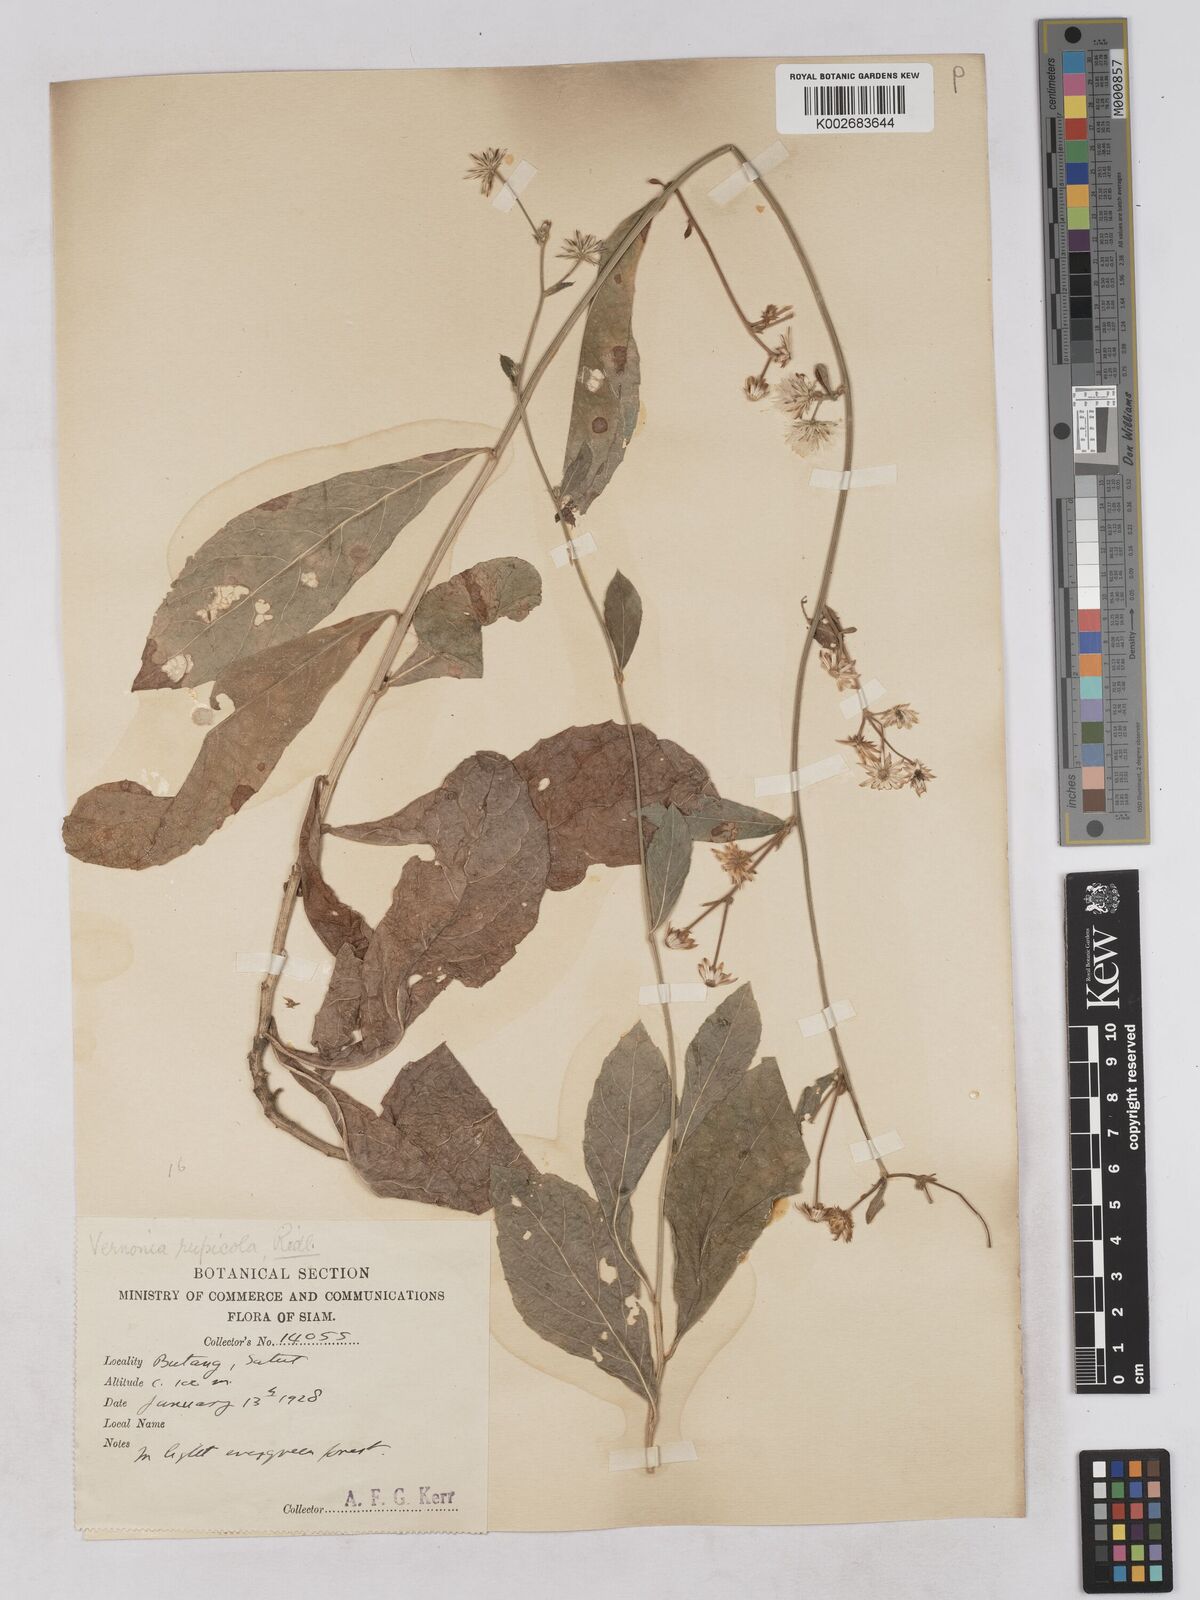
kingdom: Plantae
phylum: Tracheophyta
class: Magnoliopsida
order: Asterales
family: Asteraceae
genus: Vernonia
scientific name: Vernonia rupicola
